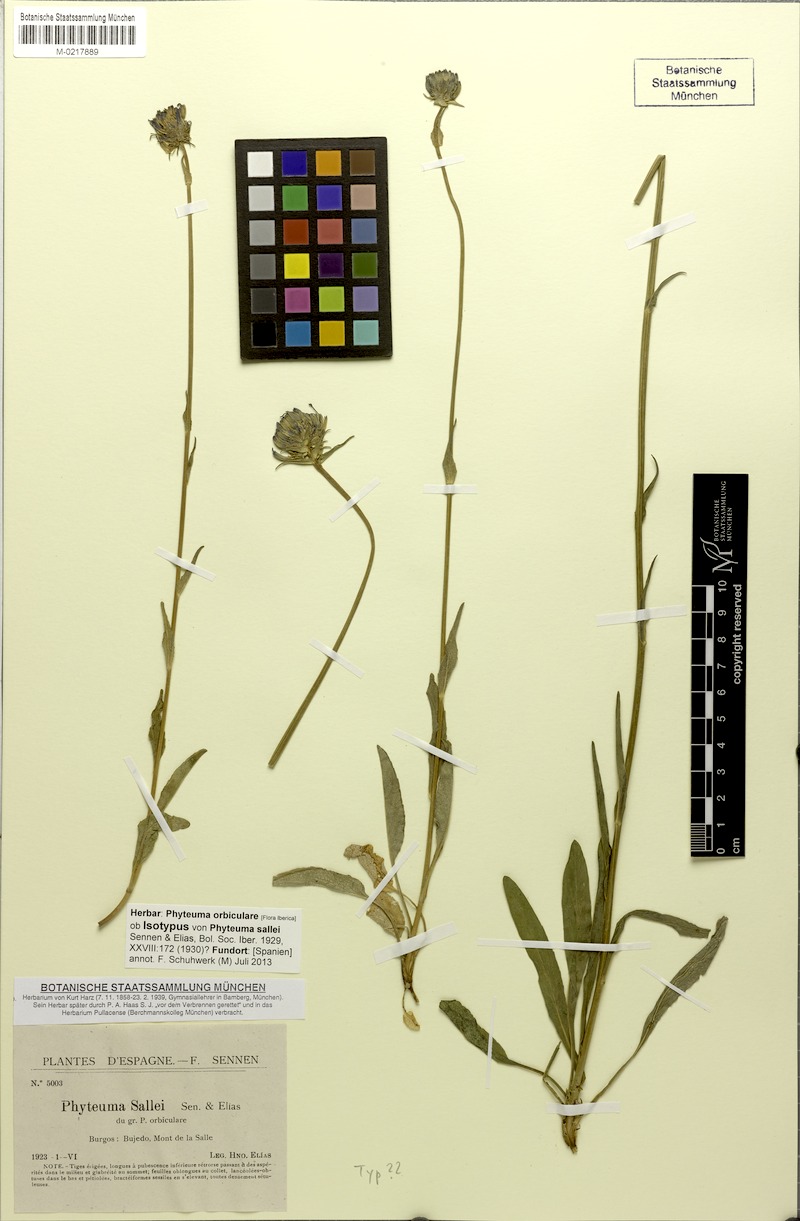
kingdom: Plantae
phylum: Tracheophyta
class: Magnoliopsida
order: Asterales
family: Campanulaceae
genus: Phyteuma
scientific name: Phyteuma orbiculare
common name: Round-headed rampion
